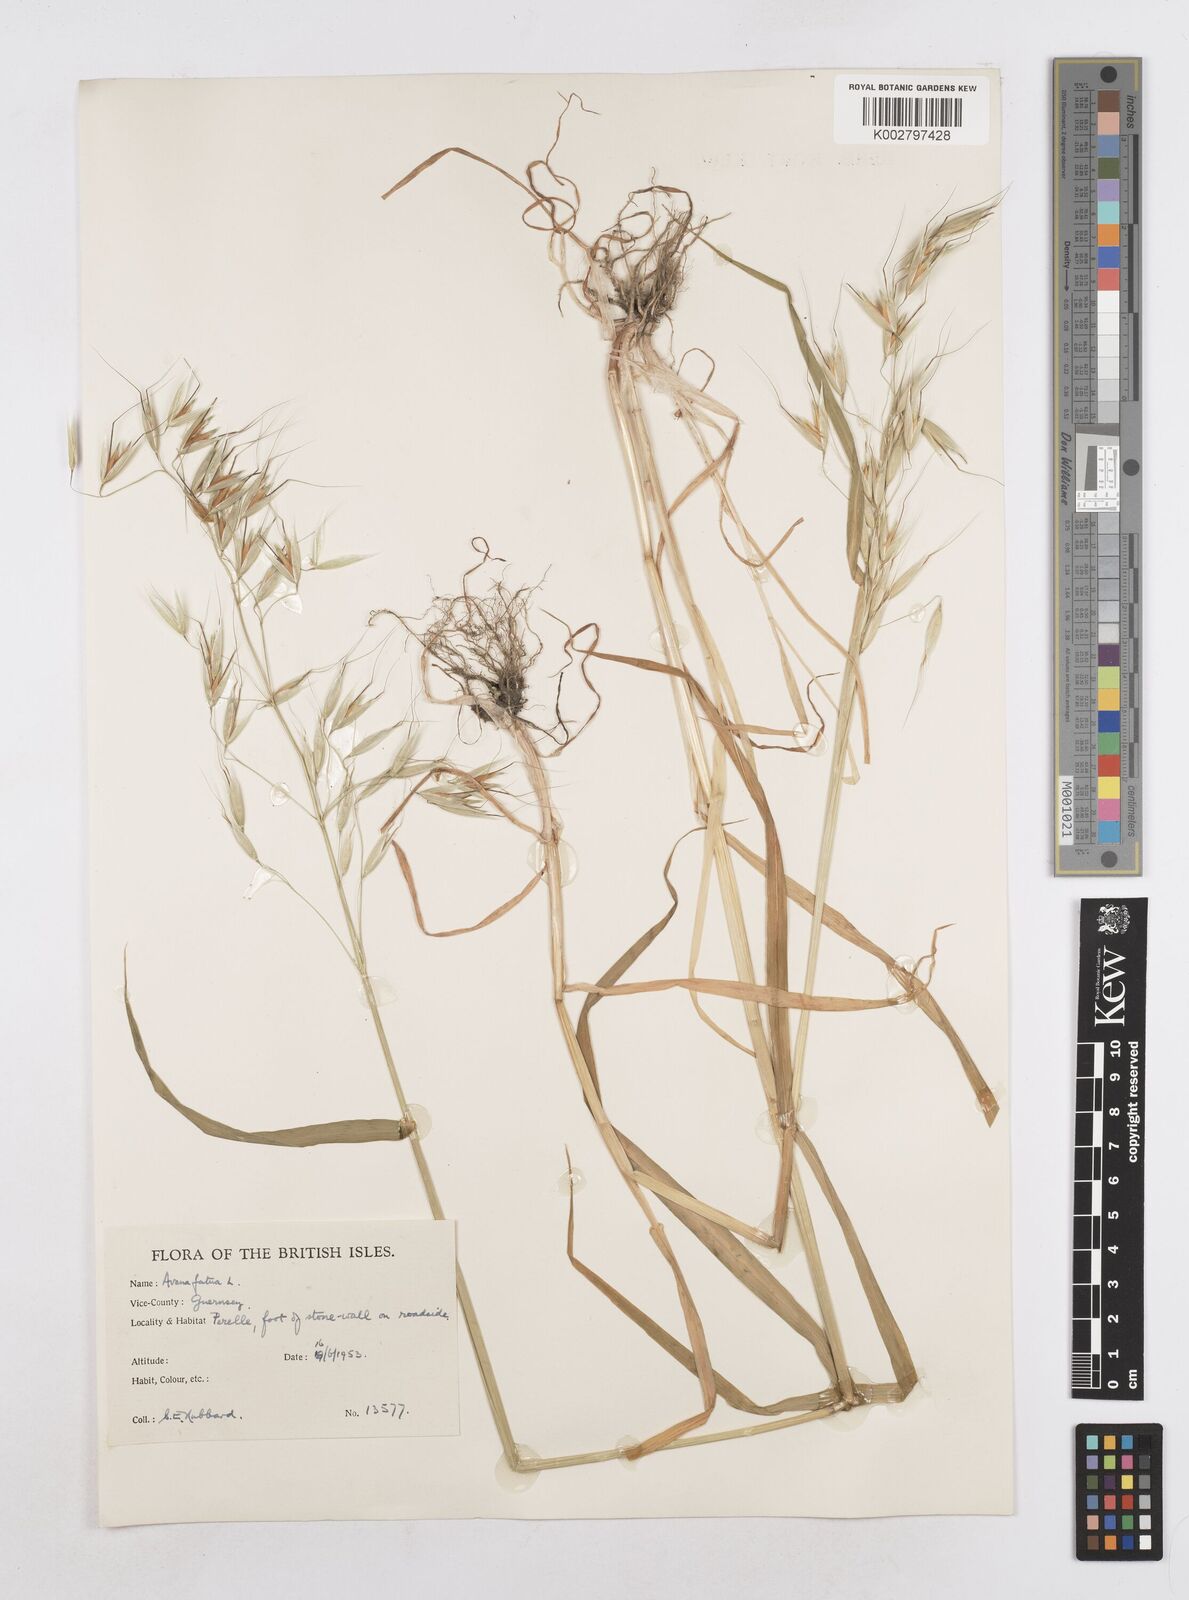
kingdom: Plantae
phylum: Tracheophyta
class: Liliopsida
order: Poales
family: Poaceae
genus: Avena
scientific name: Avena fatua
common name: Wild oat
